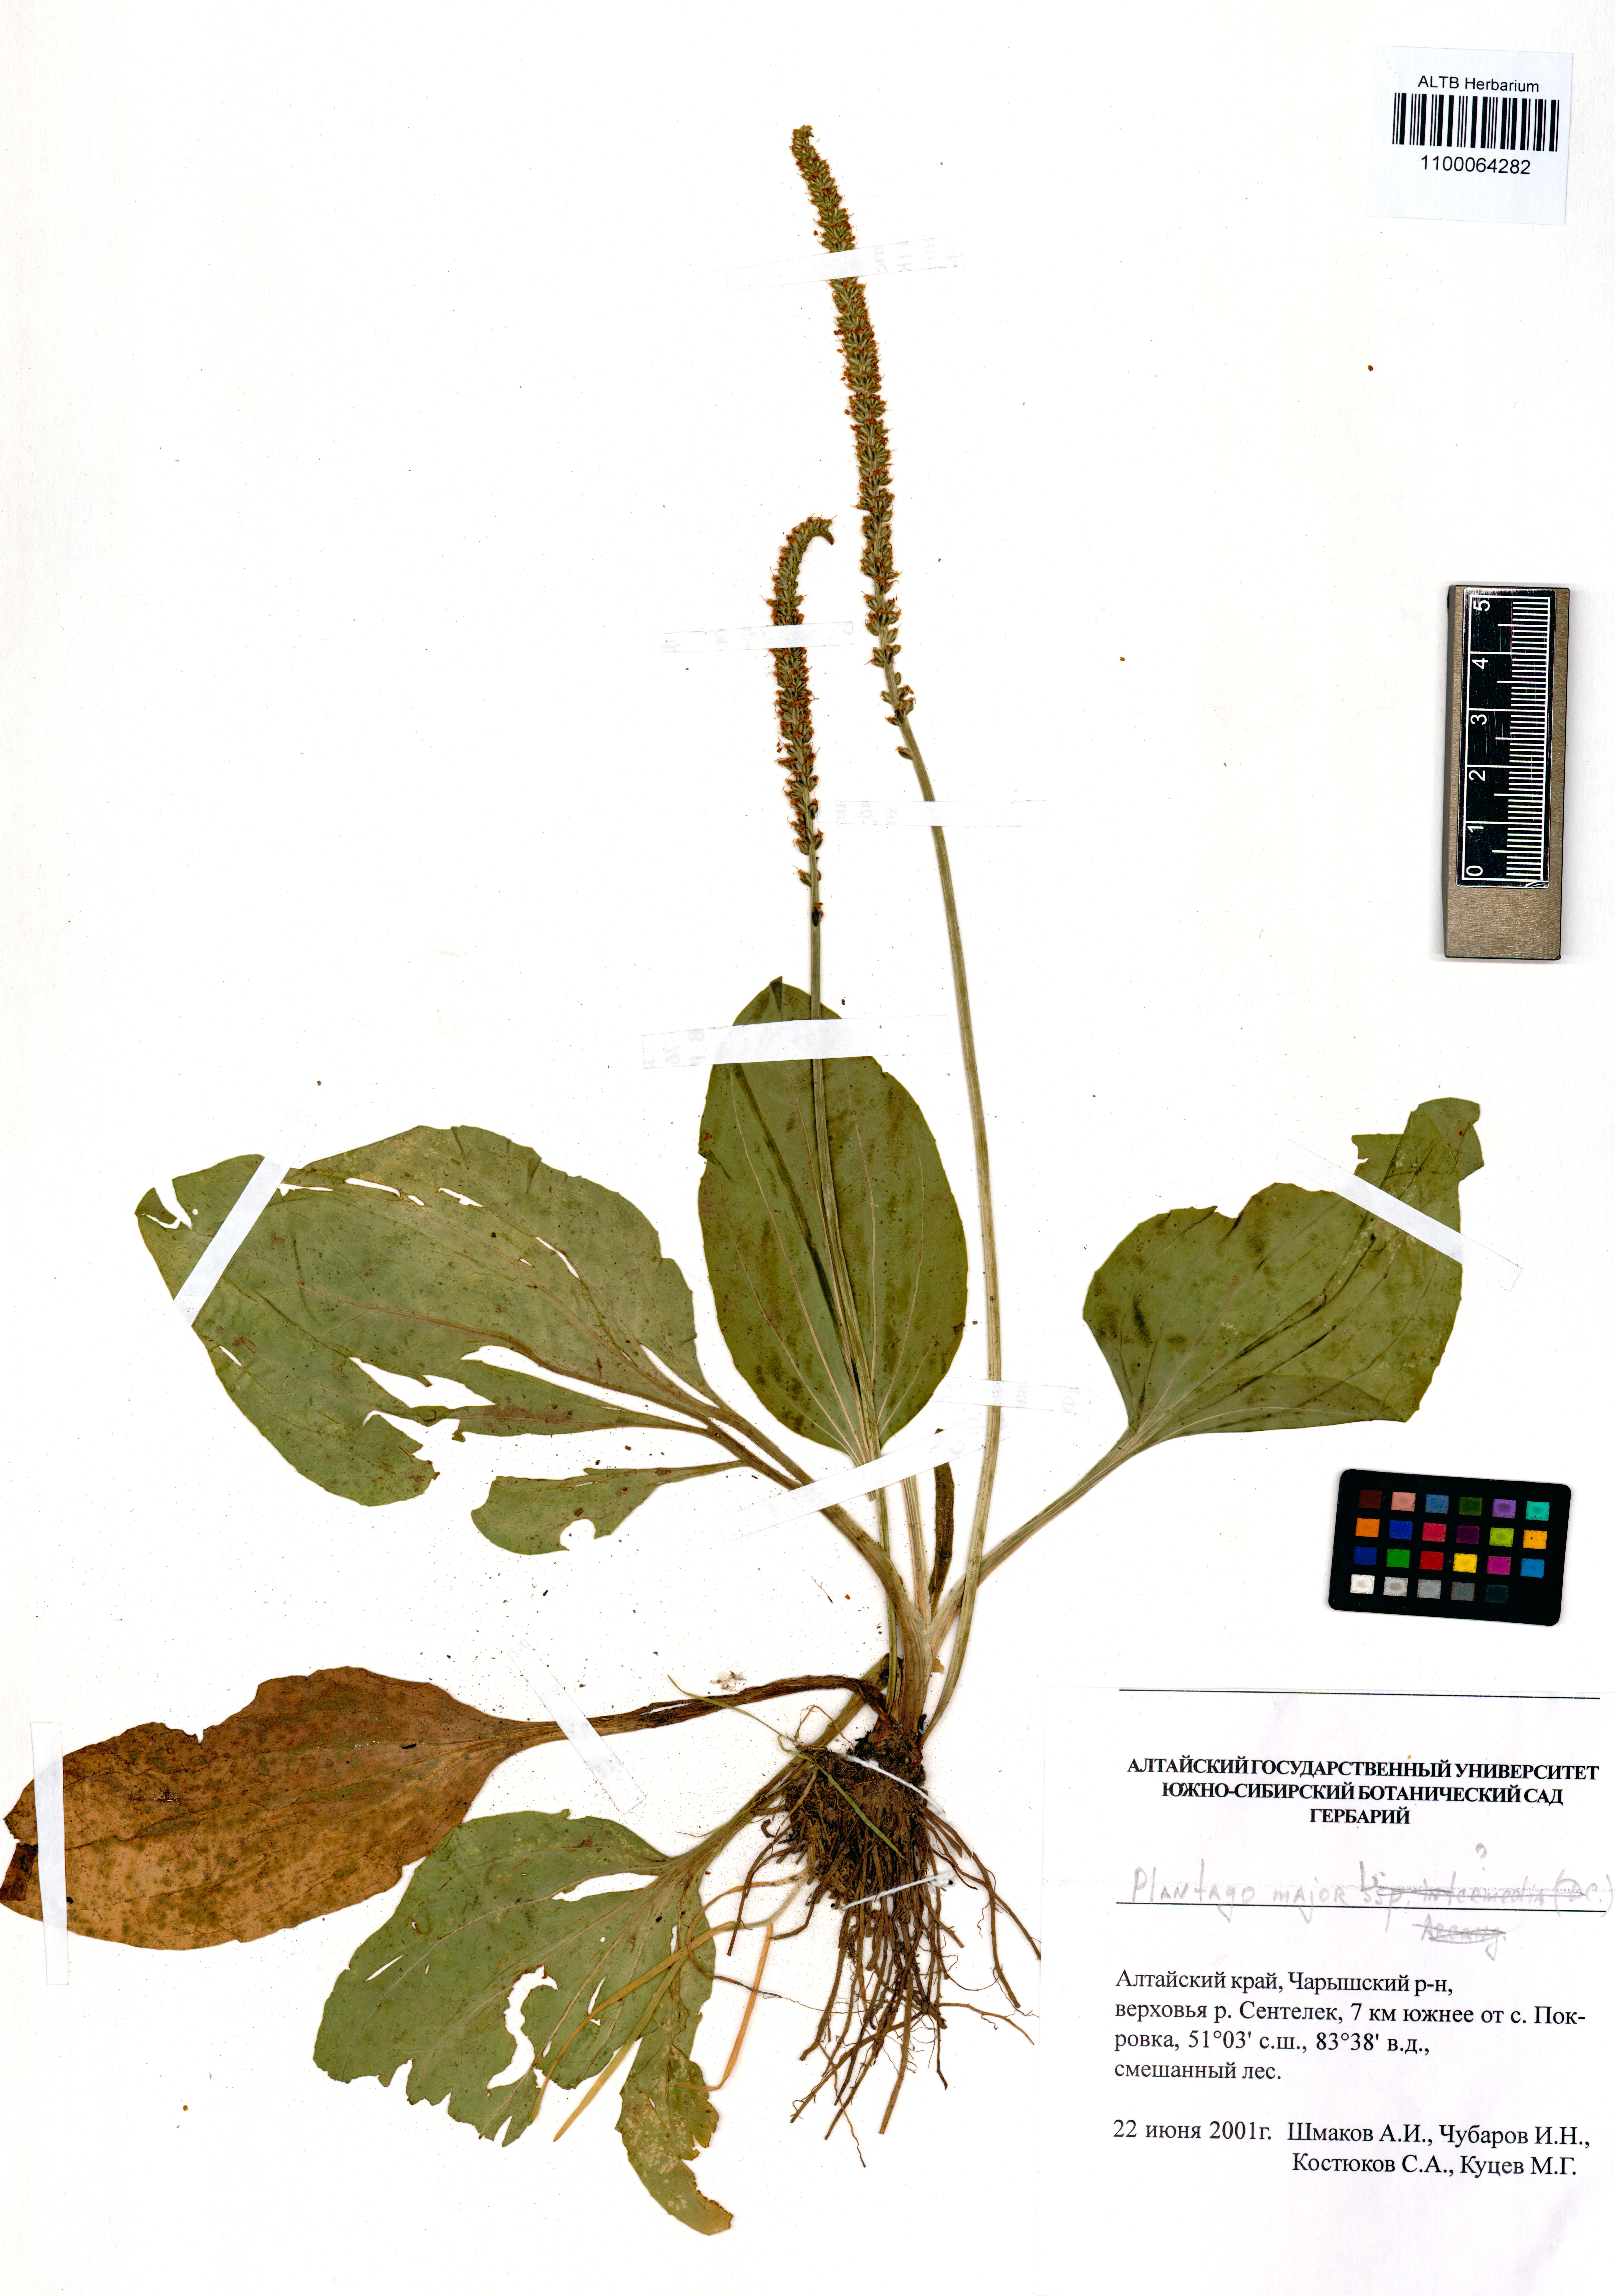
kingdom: Plantae
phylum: Tracheophyta
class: Magnoliopsida
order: Lamiales
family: Plantaginaceae
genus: Plantago
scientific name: Plantago major
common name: Common plantain
